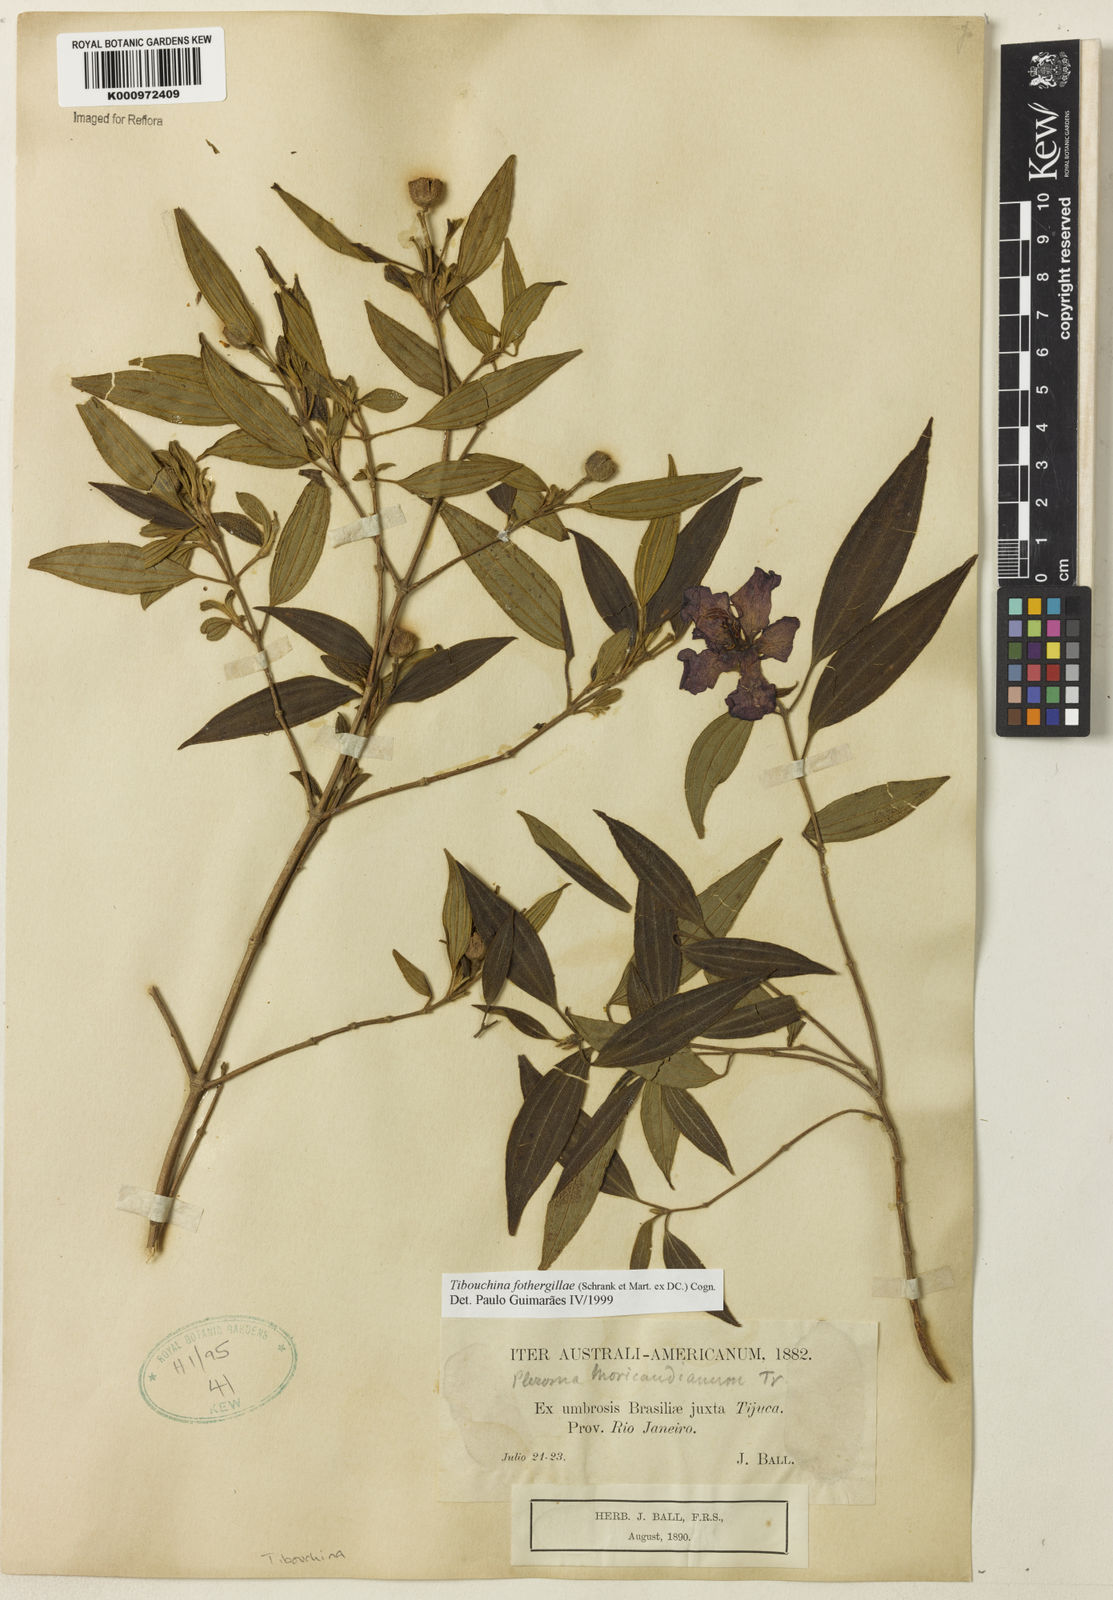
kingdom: Plantae
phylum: Tracheophyta
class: Magnoliopsida
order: Myrtales
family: Melastomataceae
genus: Pleroma
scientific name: Pleroma fothergillae
